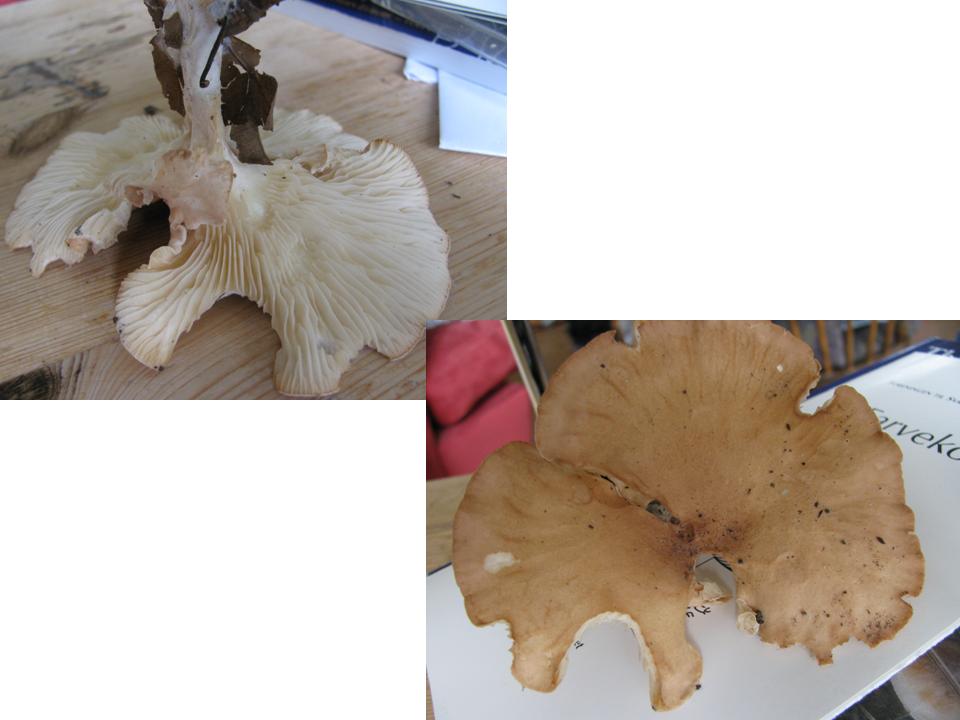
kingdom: Fungi
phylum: Basidiomycota
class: Agaricomycetes
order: Agaricales
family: Tricholomataceae
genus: Infundibulicybe
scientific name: Infundibulicybe gibba
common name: almindelig tragthat
